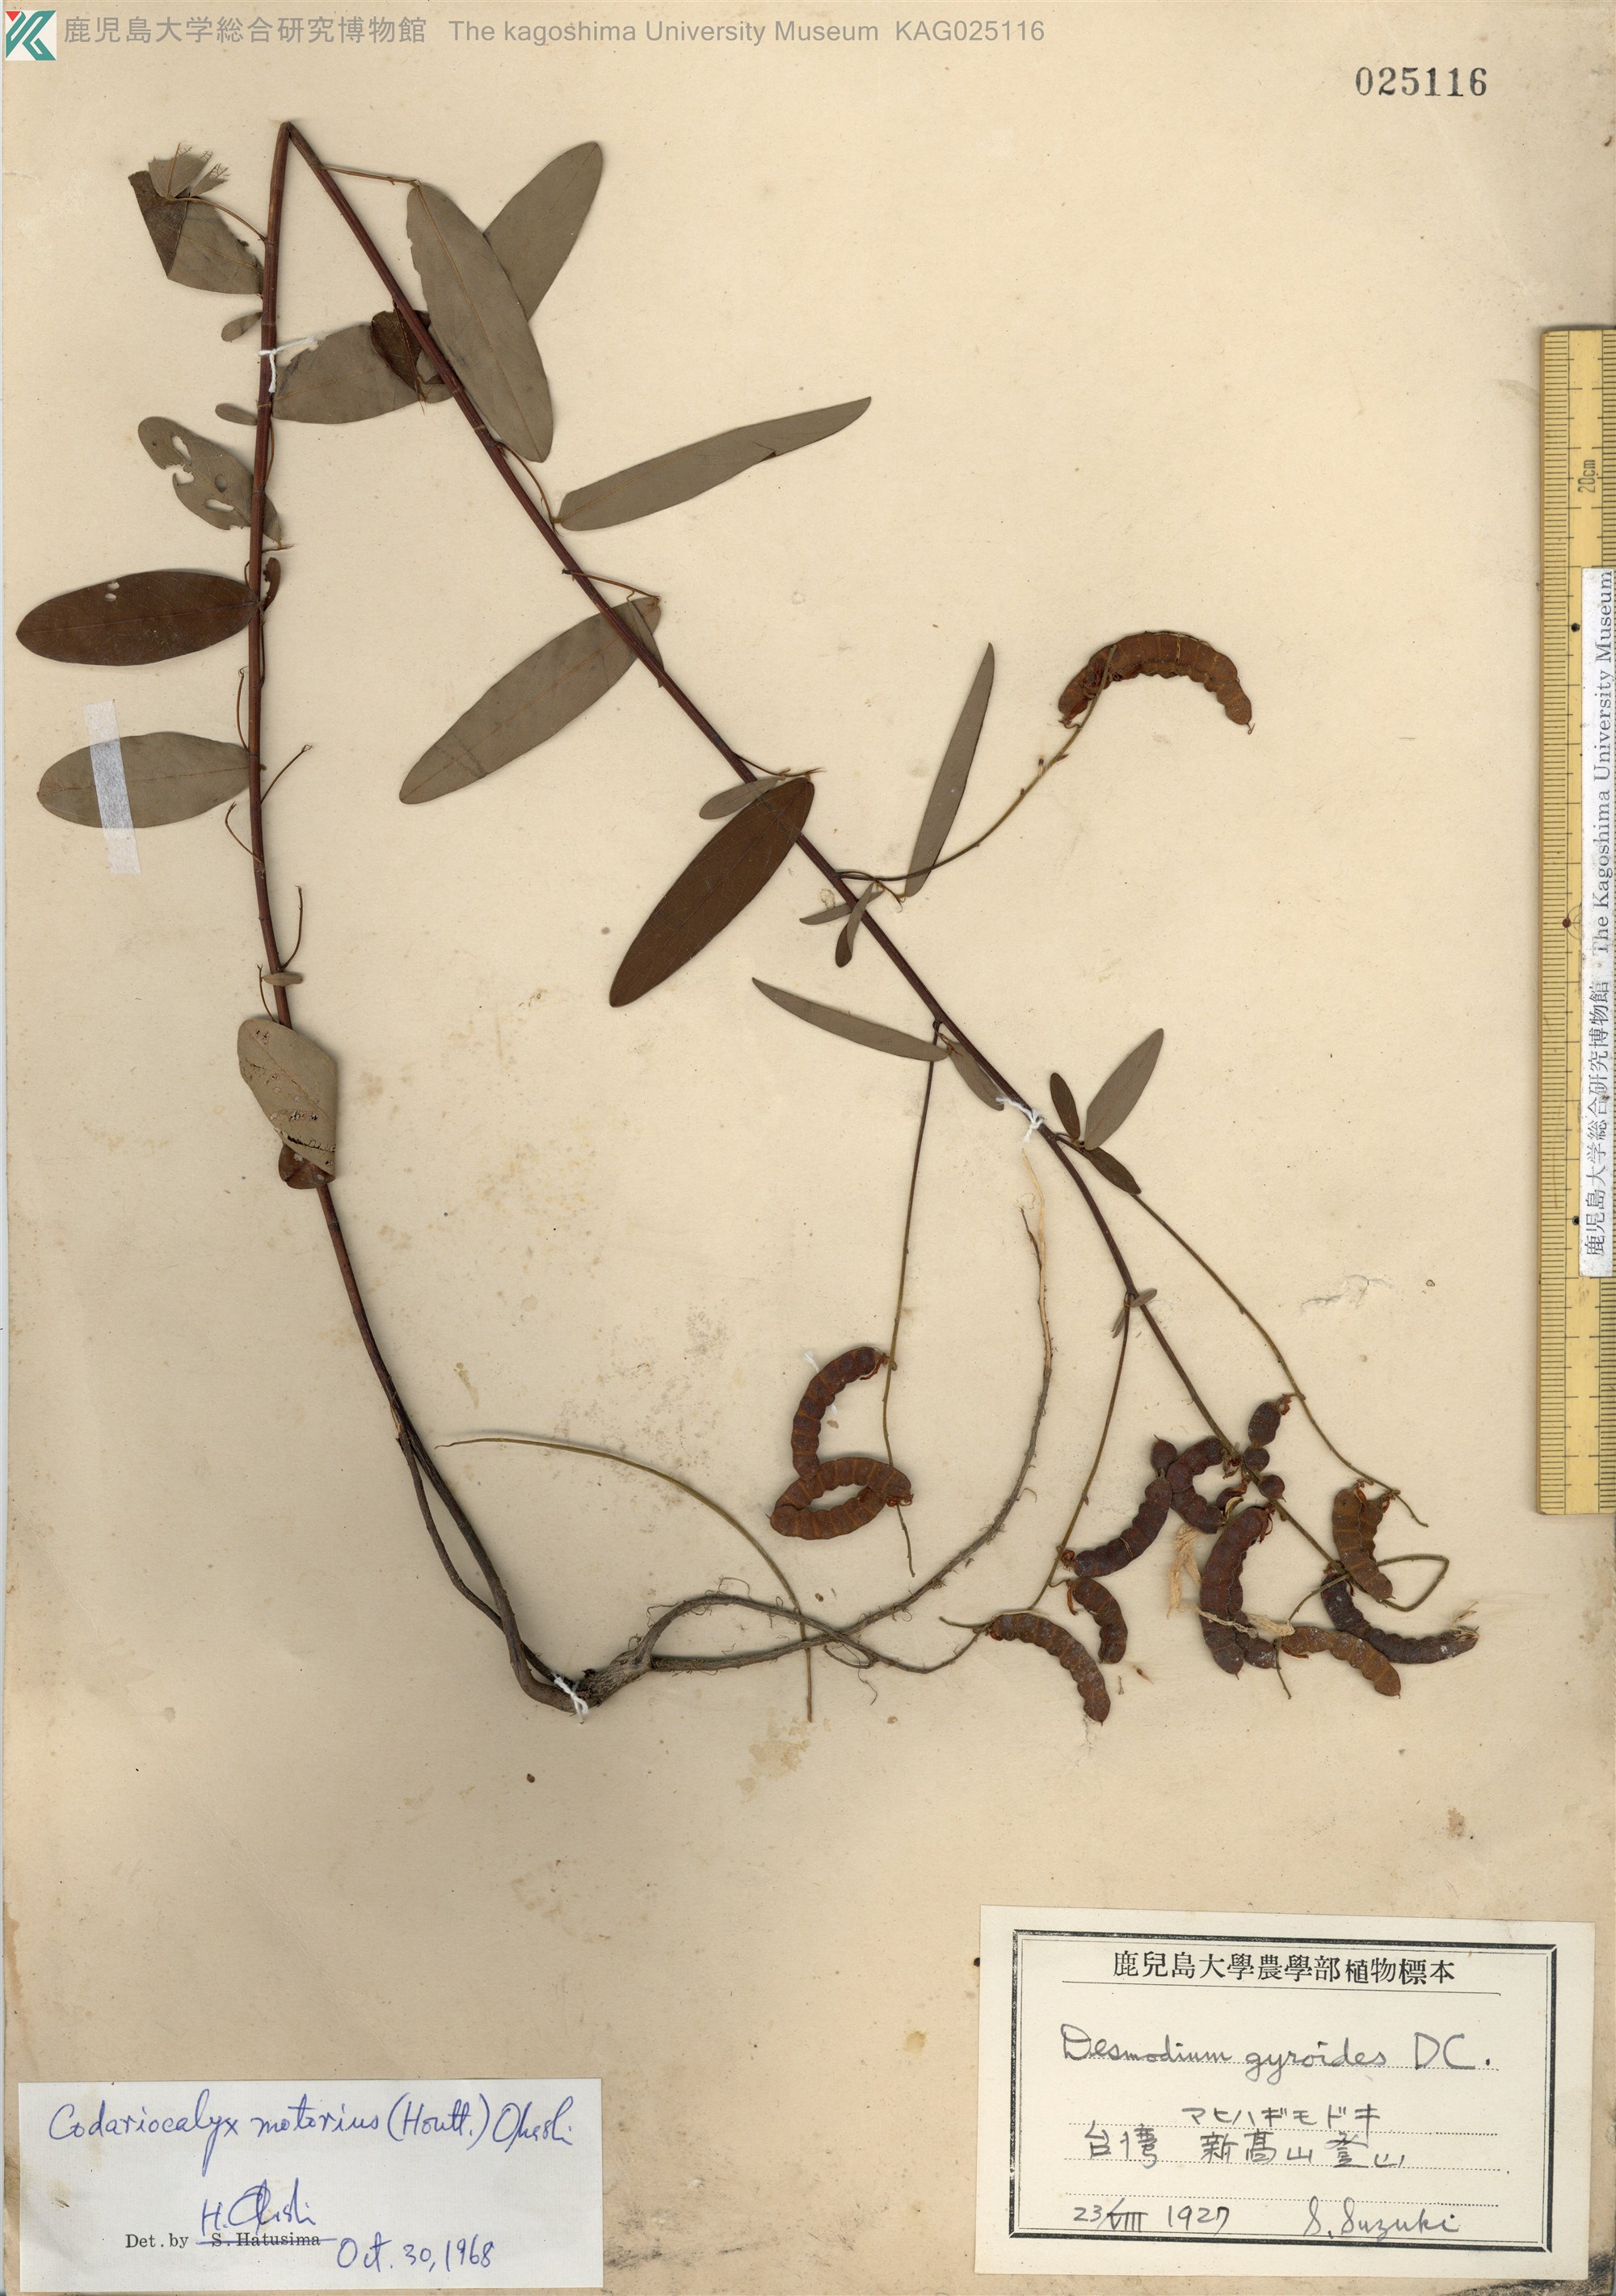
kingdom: Plantae
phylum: Tracheophyta
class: Magnoliopsida
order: Fabales
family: Fabaceae
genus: Codariocalyx
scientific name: Codariocalyx motorius
